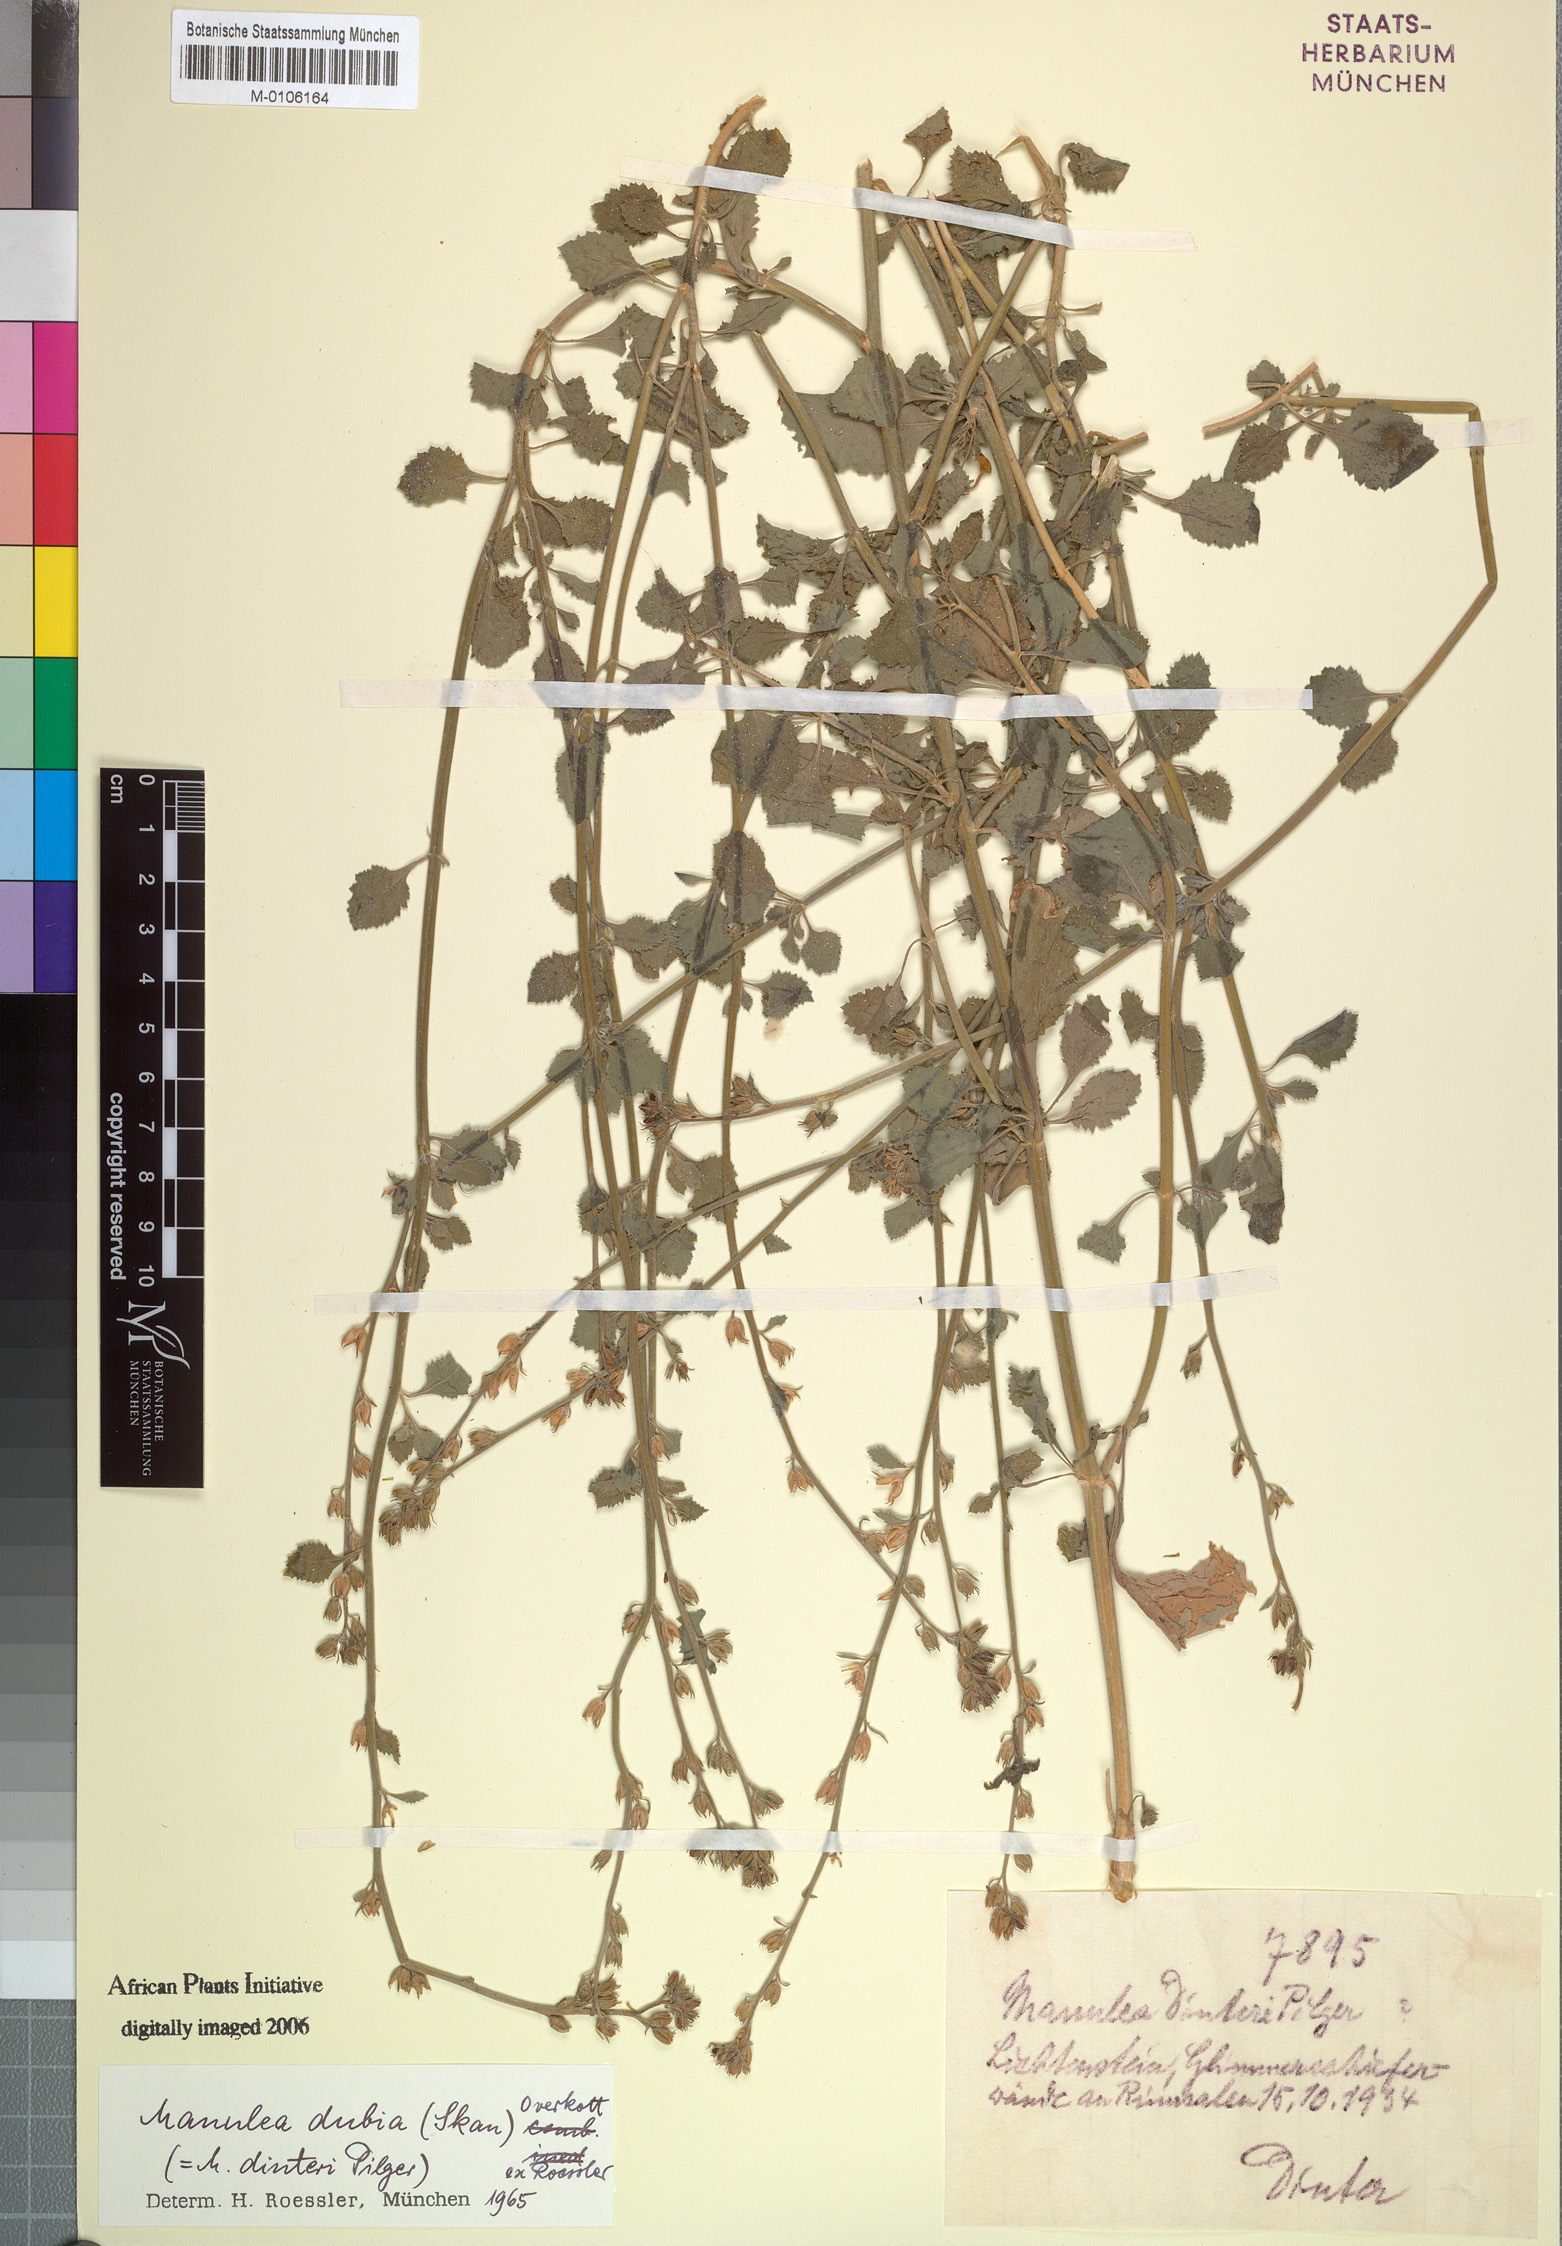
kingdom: Plantae
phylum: Tracheophyta
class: Magnoliopsida
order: Lamiales
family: Scrophulariaceae
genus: Manulea
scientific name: Manulea dubia
